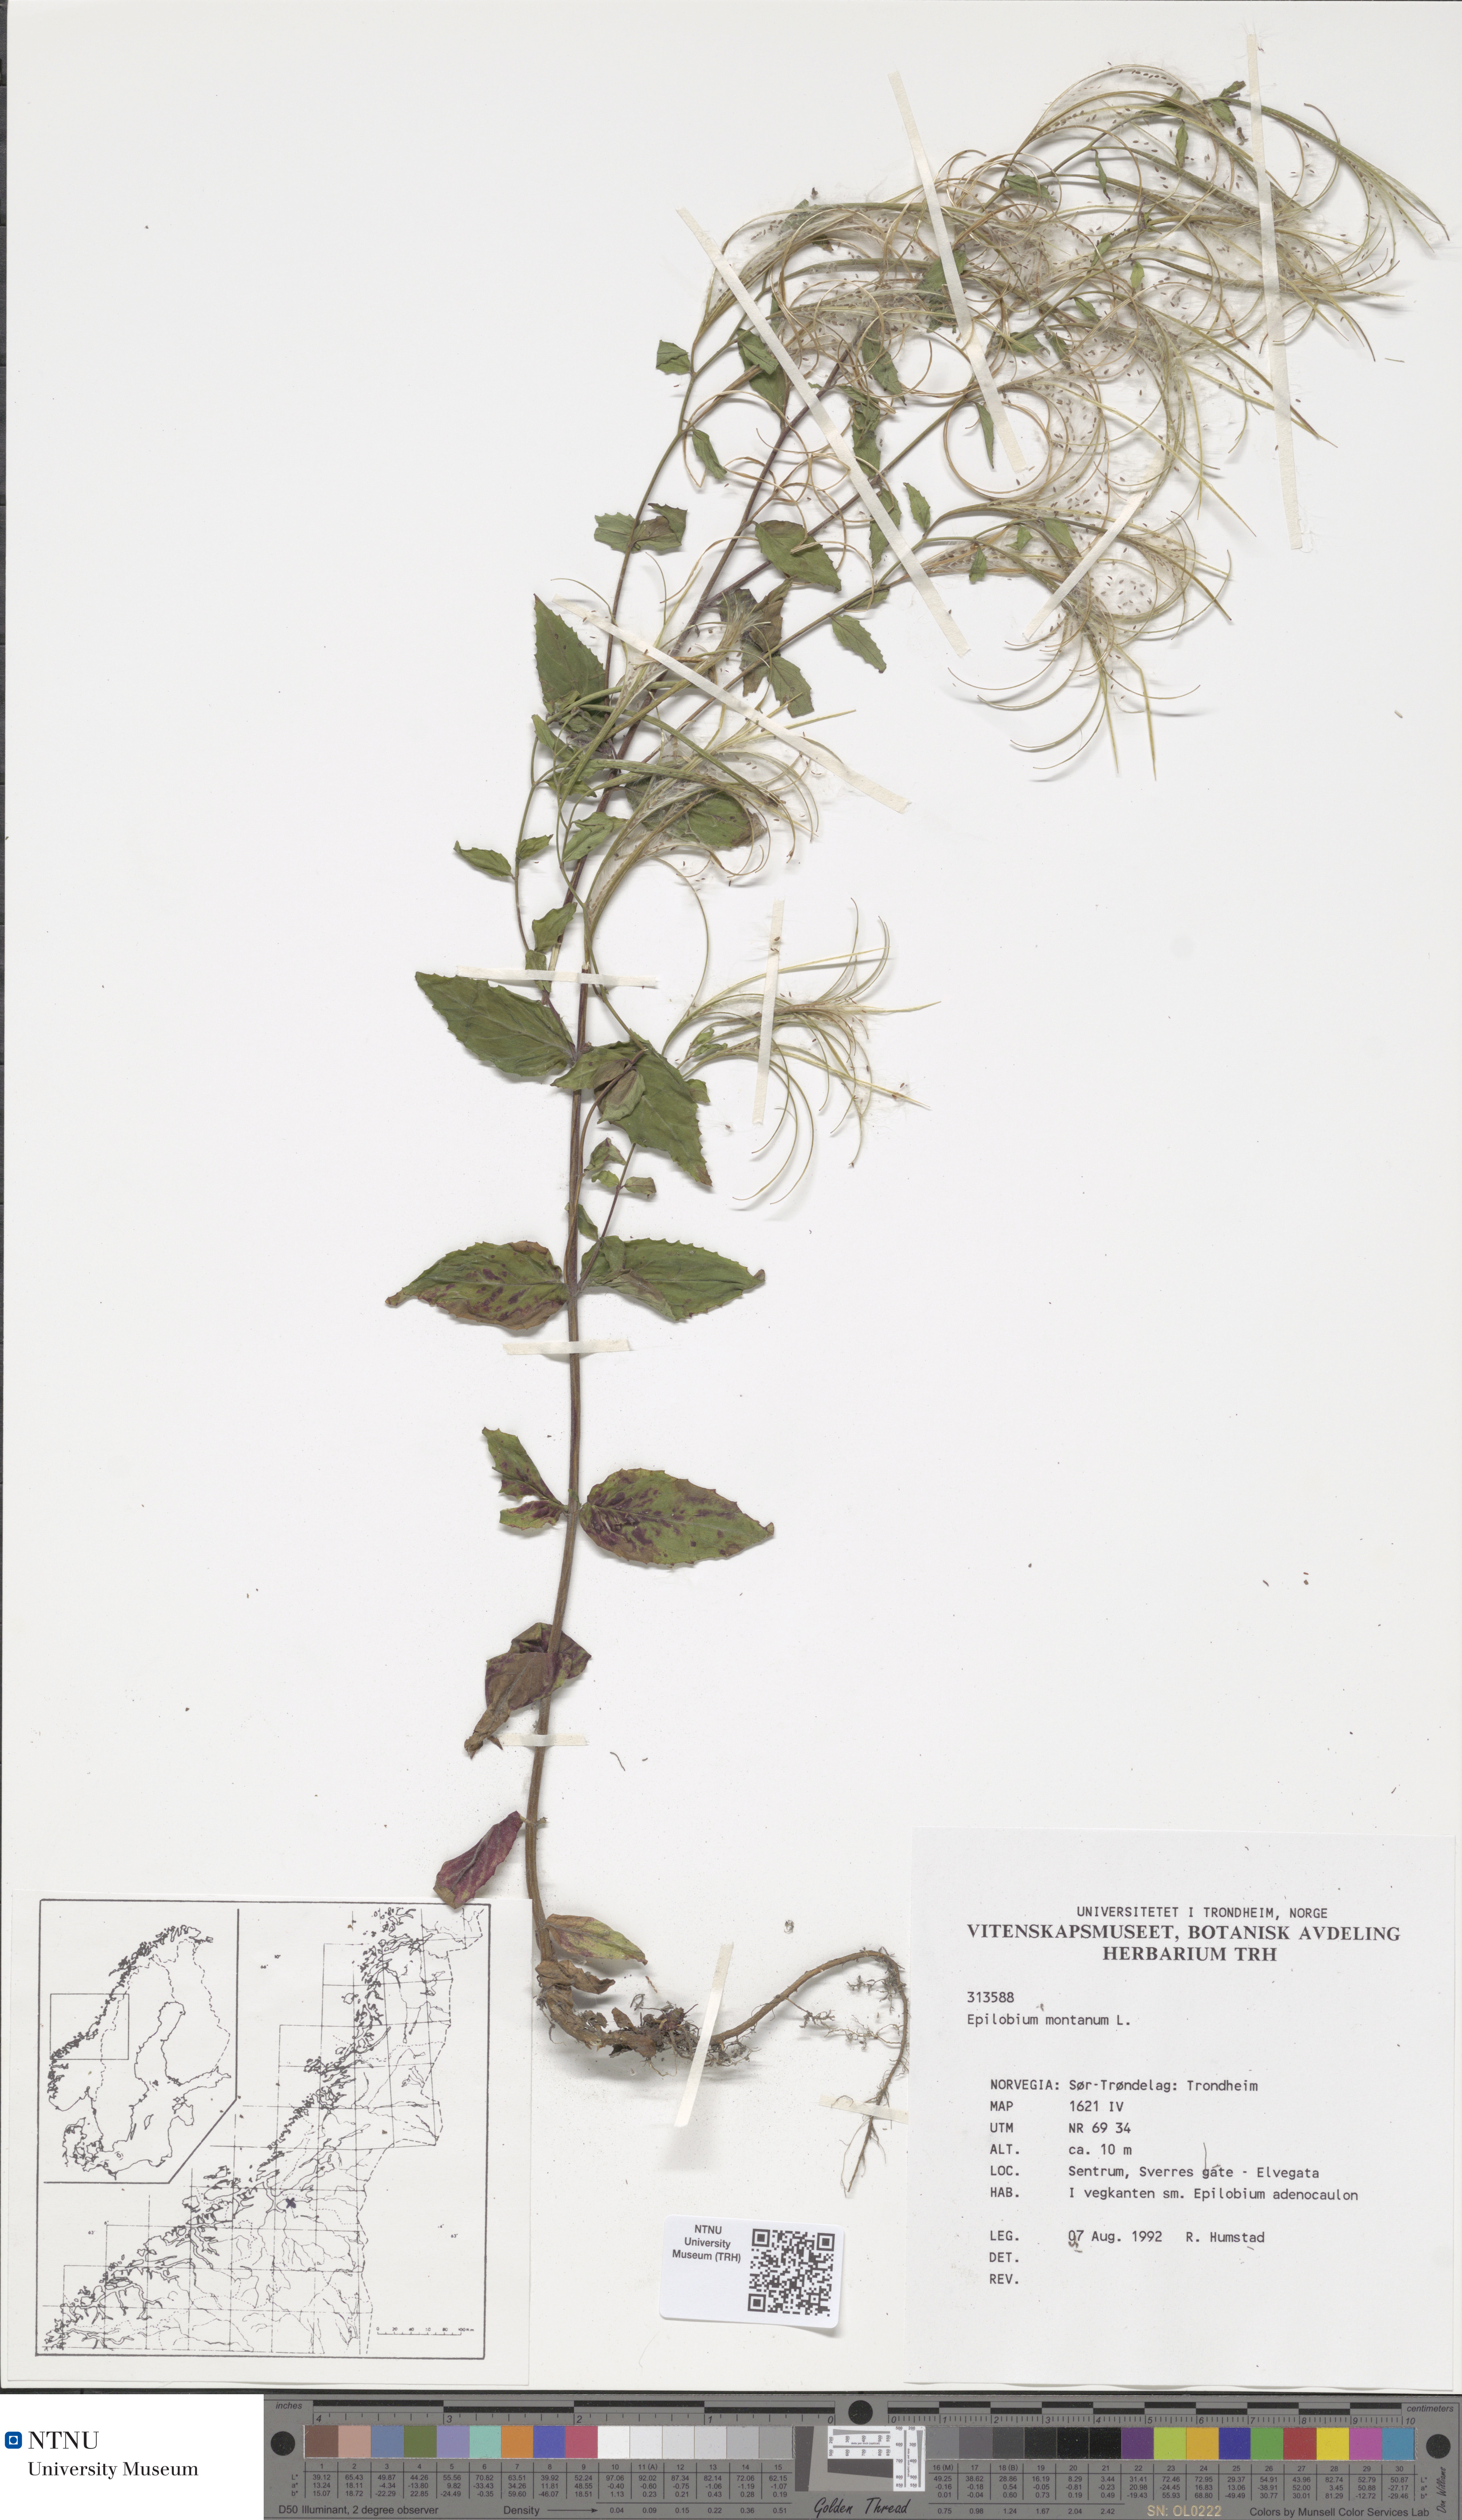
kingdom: Plantae
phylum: Tracheophyta
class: Magnoliopsida
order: Myrtales
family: Onagraceae
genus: Epilobium
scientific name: Epilobium montanum
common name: Broad-leaved willowherb
